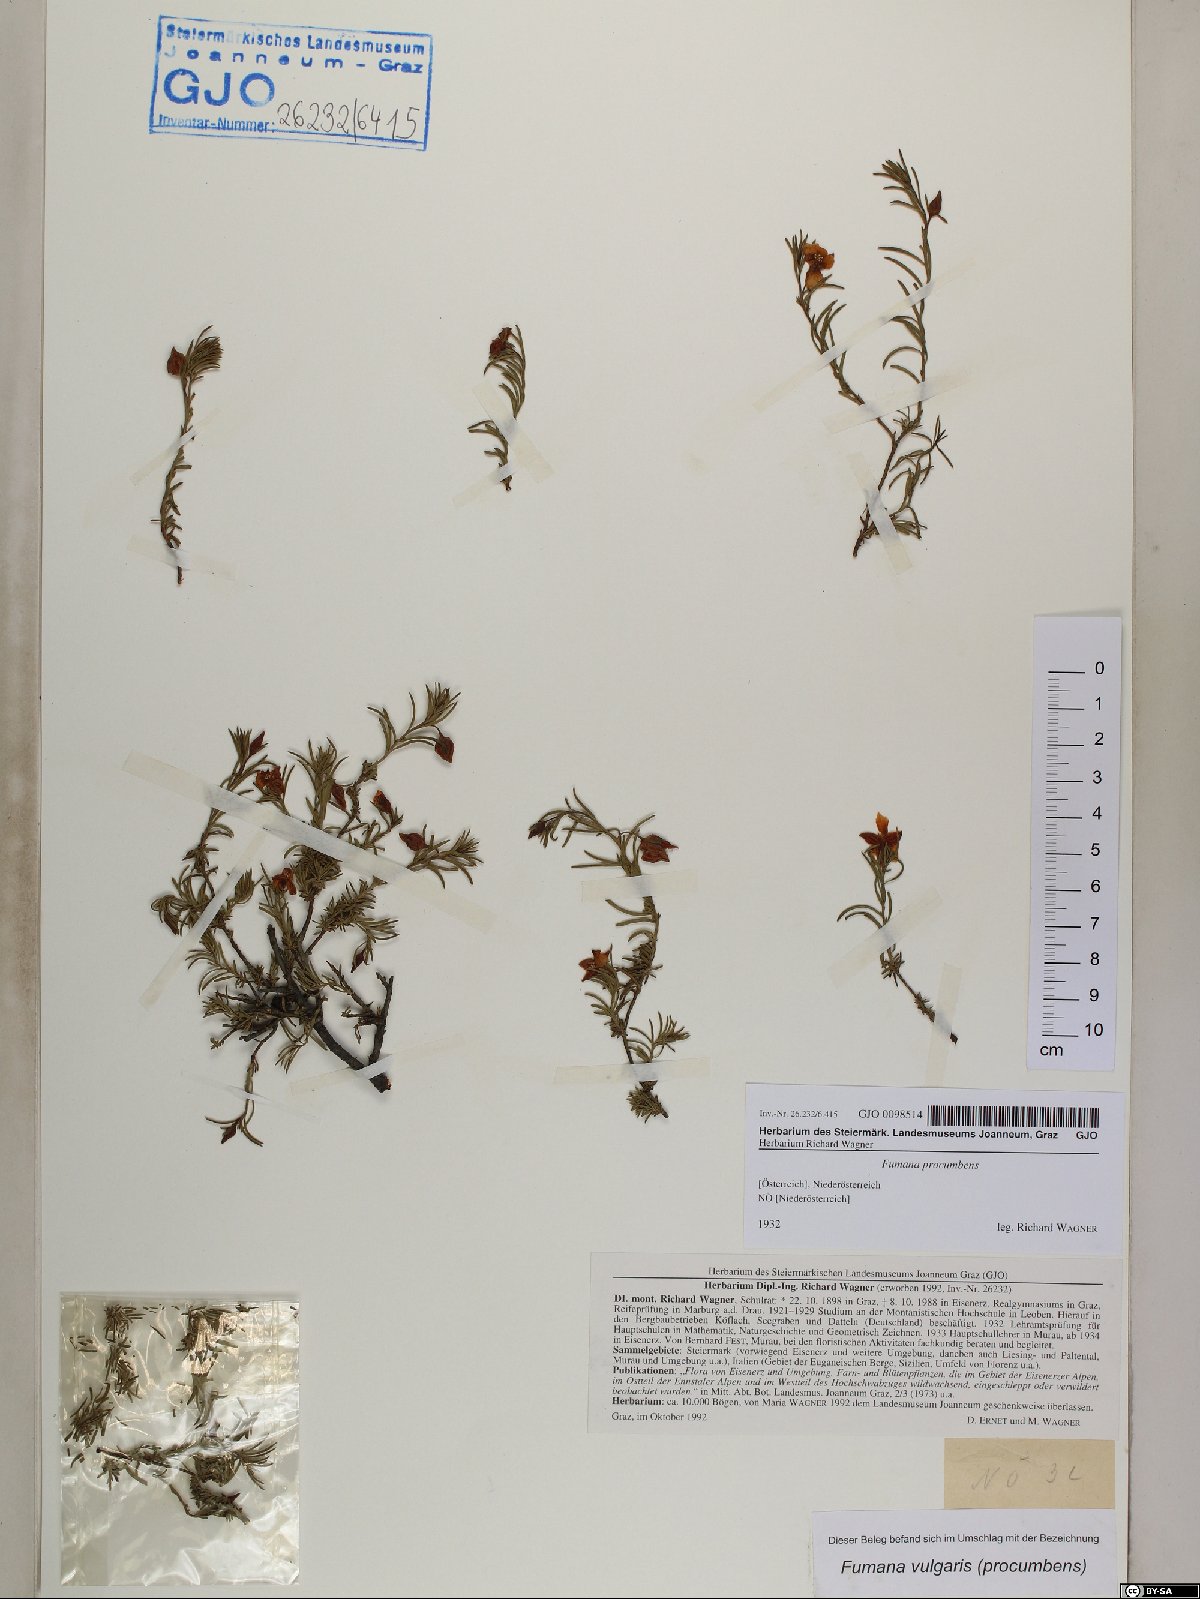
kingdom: Plantae
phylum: Tracheophyta
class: Magnoliopsida
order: Malvales
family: Cistaceae
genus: Fumana
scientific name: Fumana procumbens
